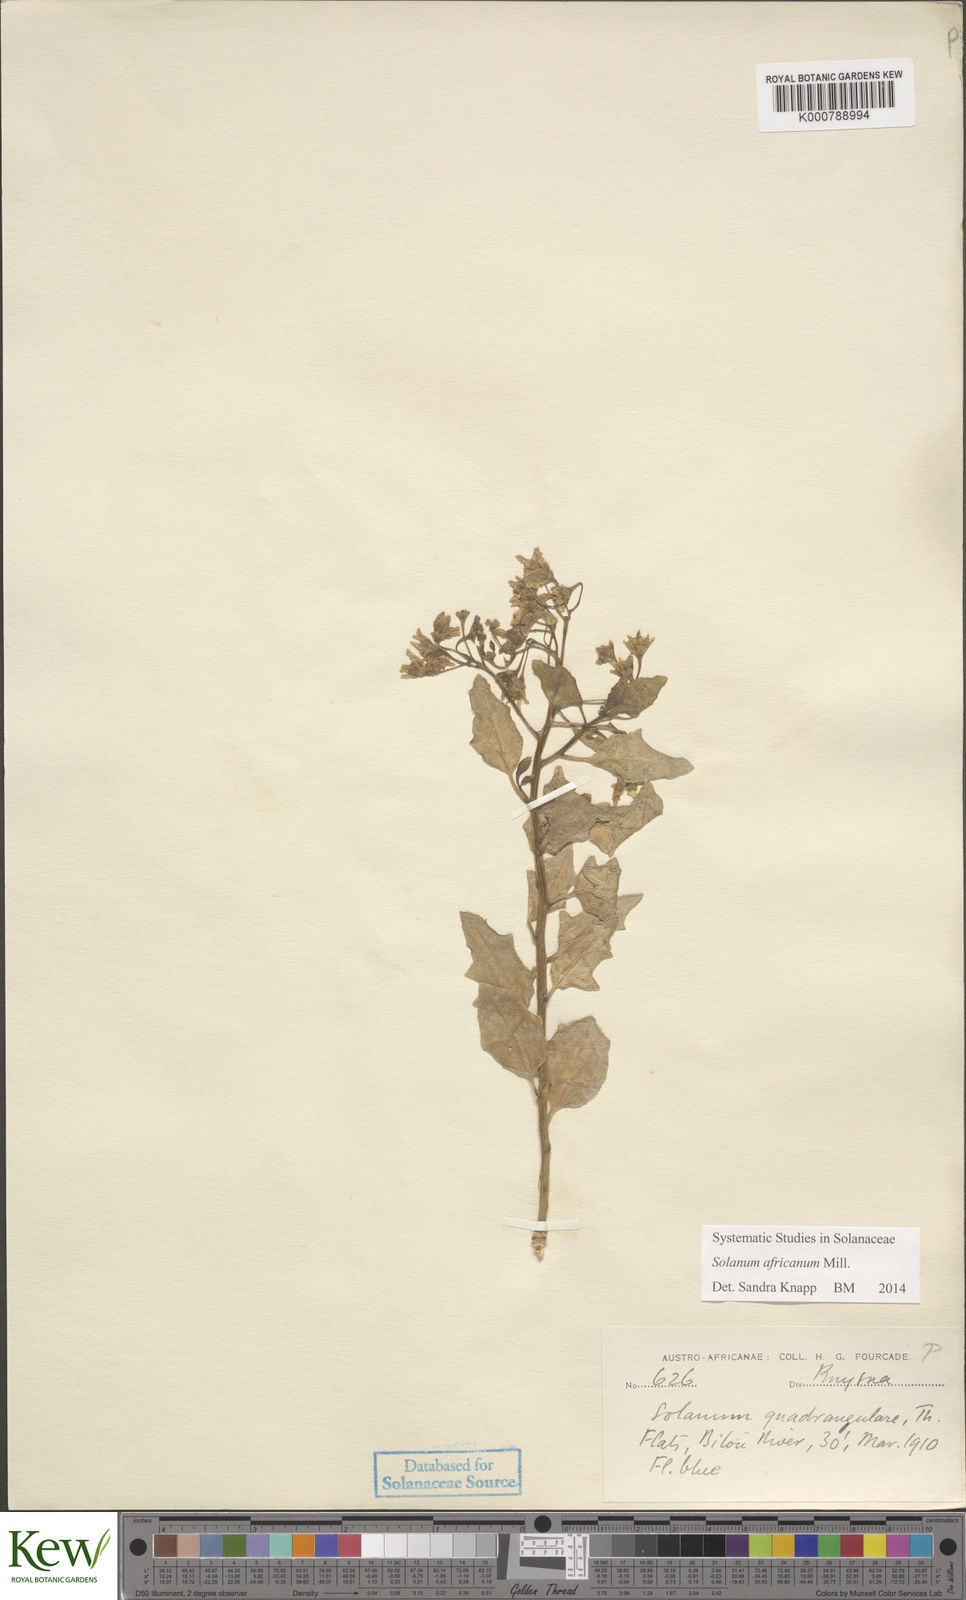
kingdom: Plantae
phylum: Tracheophyta
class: Magnoliopsida
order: Solanales
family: Solanaceae
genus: Solanum
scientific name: Solanum africanum
